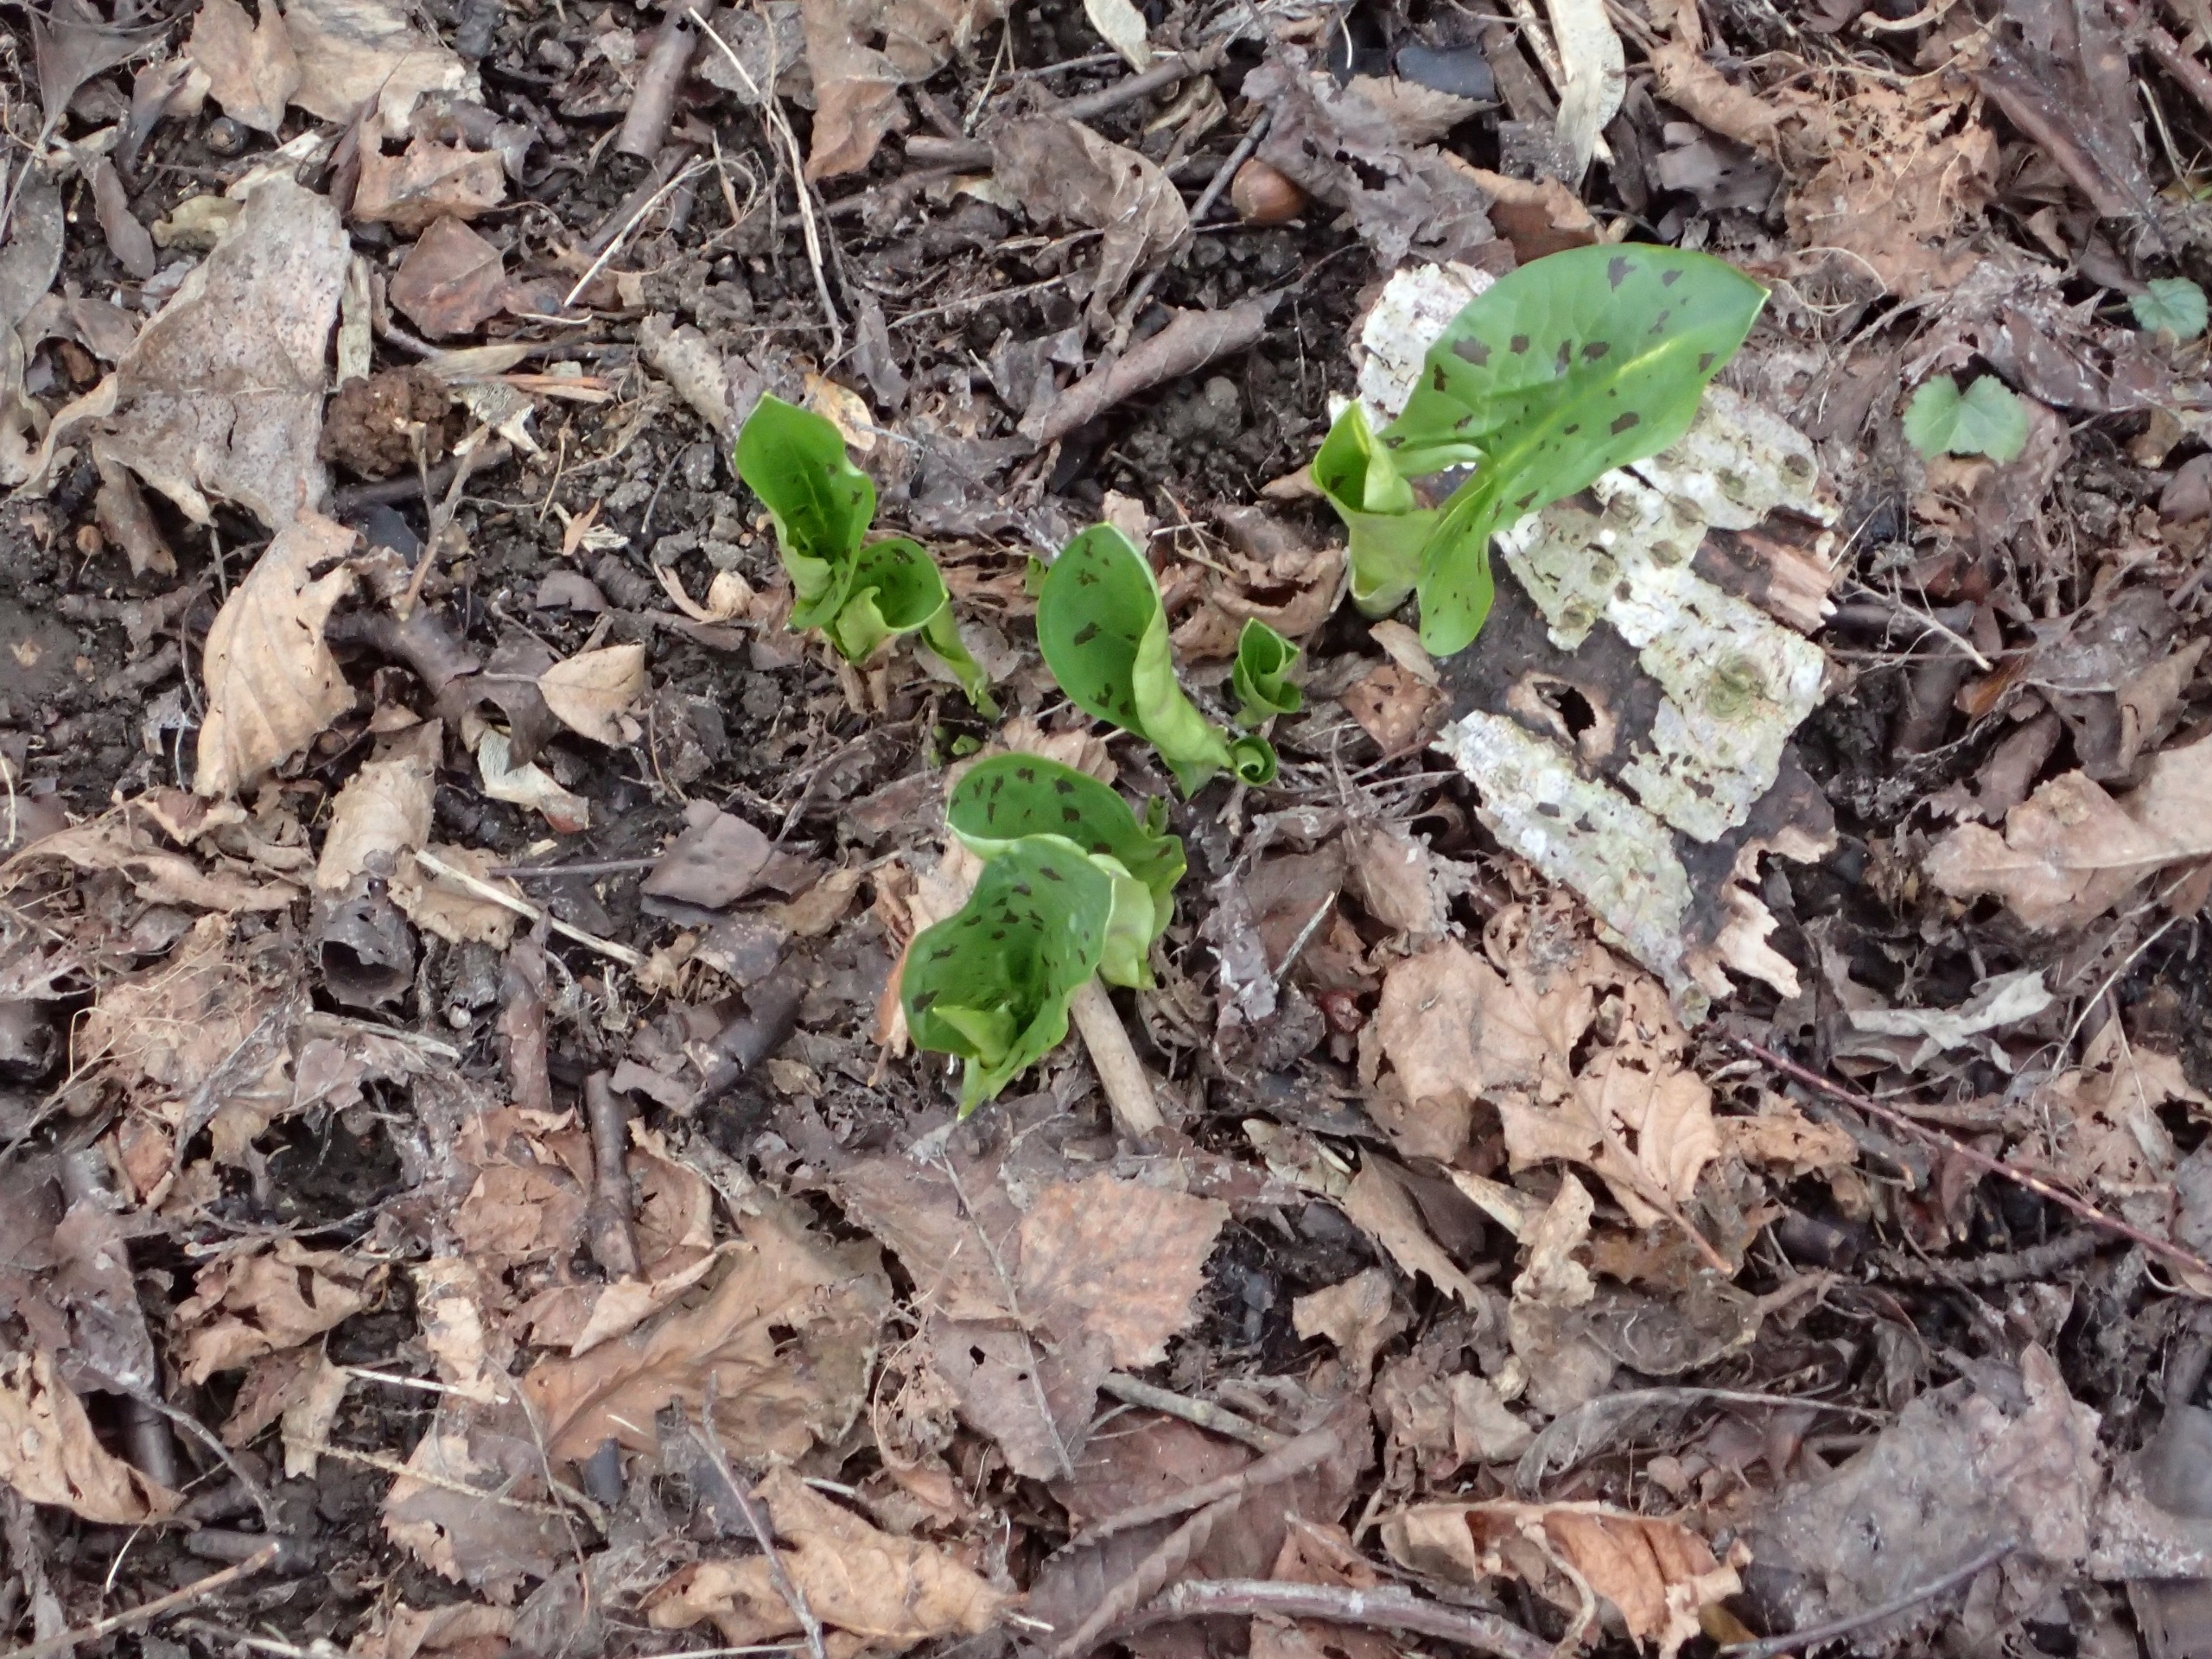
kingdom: Plantae
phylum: Tracheophyta
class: Liliopsida
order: Alismatales
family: Araceae
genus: Arum
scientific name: Arum maculatum
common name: Plettet arum
